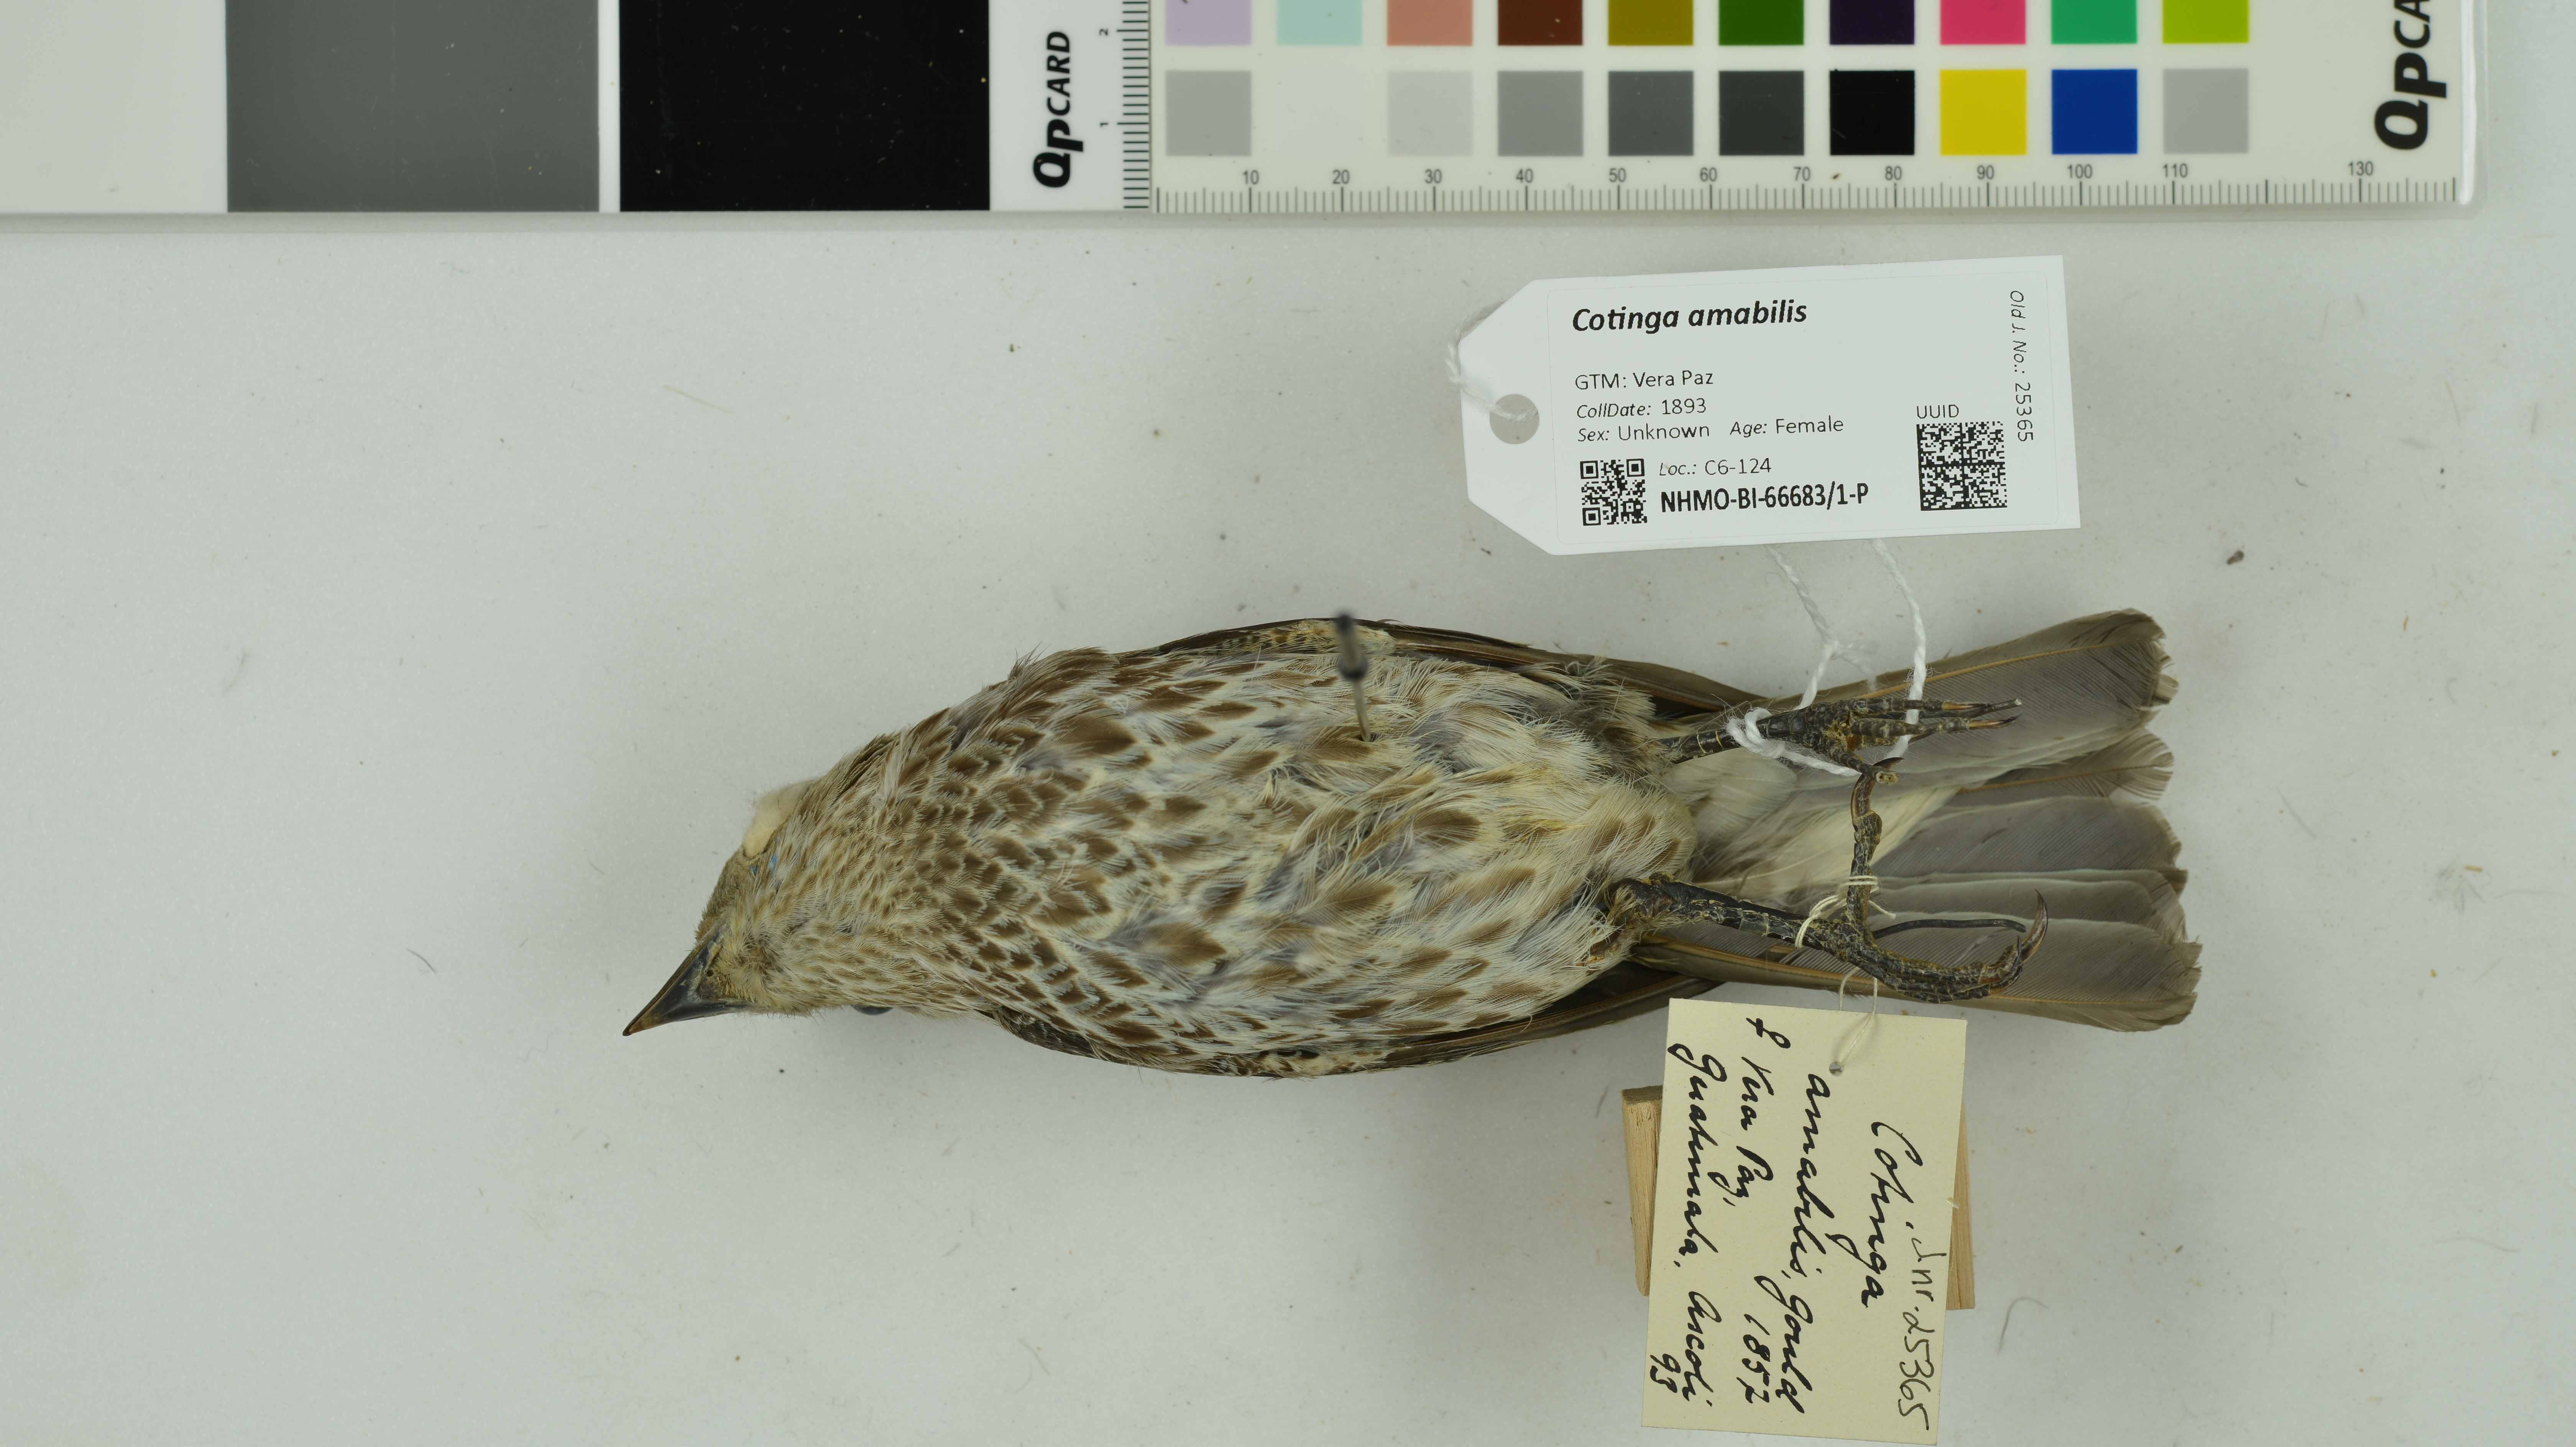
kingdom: Animalia
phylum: Chordata
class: Aves
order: Passeriformes
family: Cotingidae
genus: Cotinga
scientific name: Cotinga amabilis
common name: Lovely cotinga
